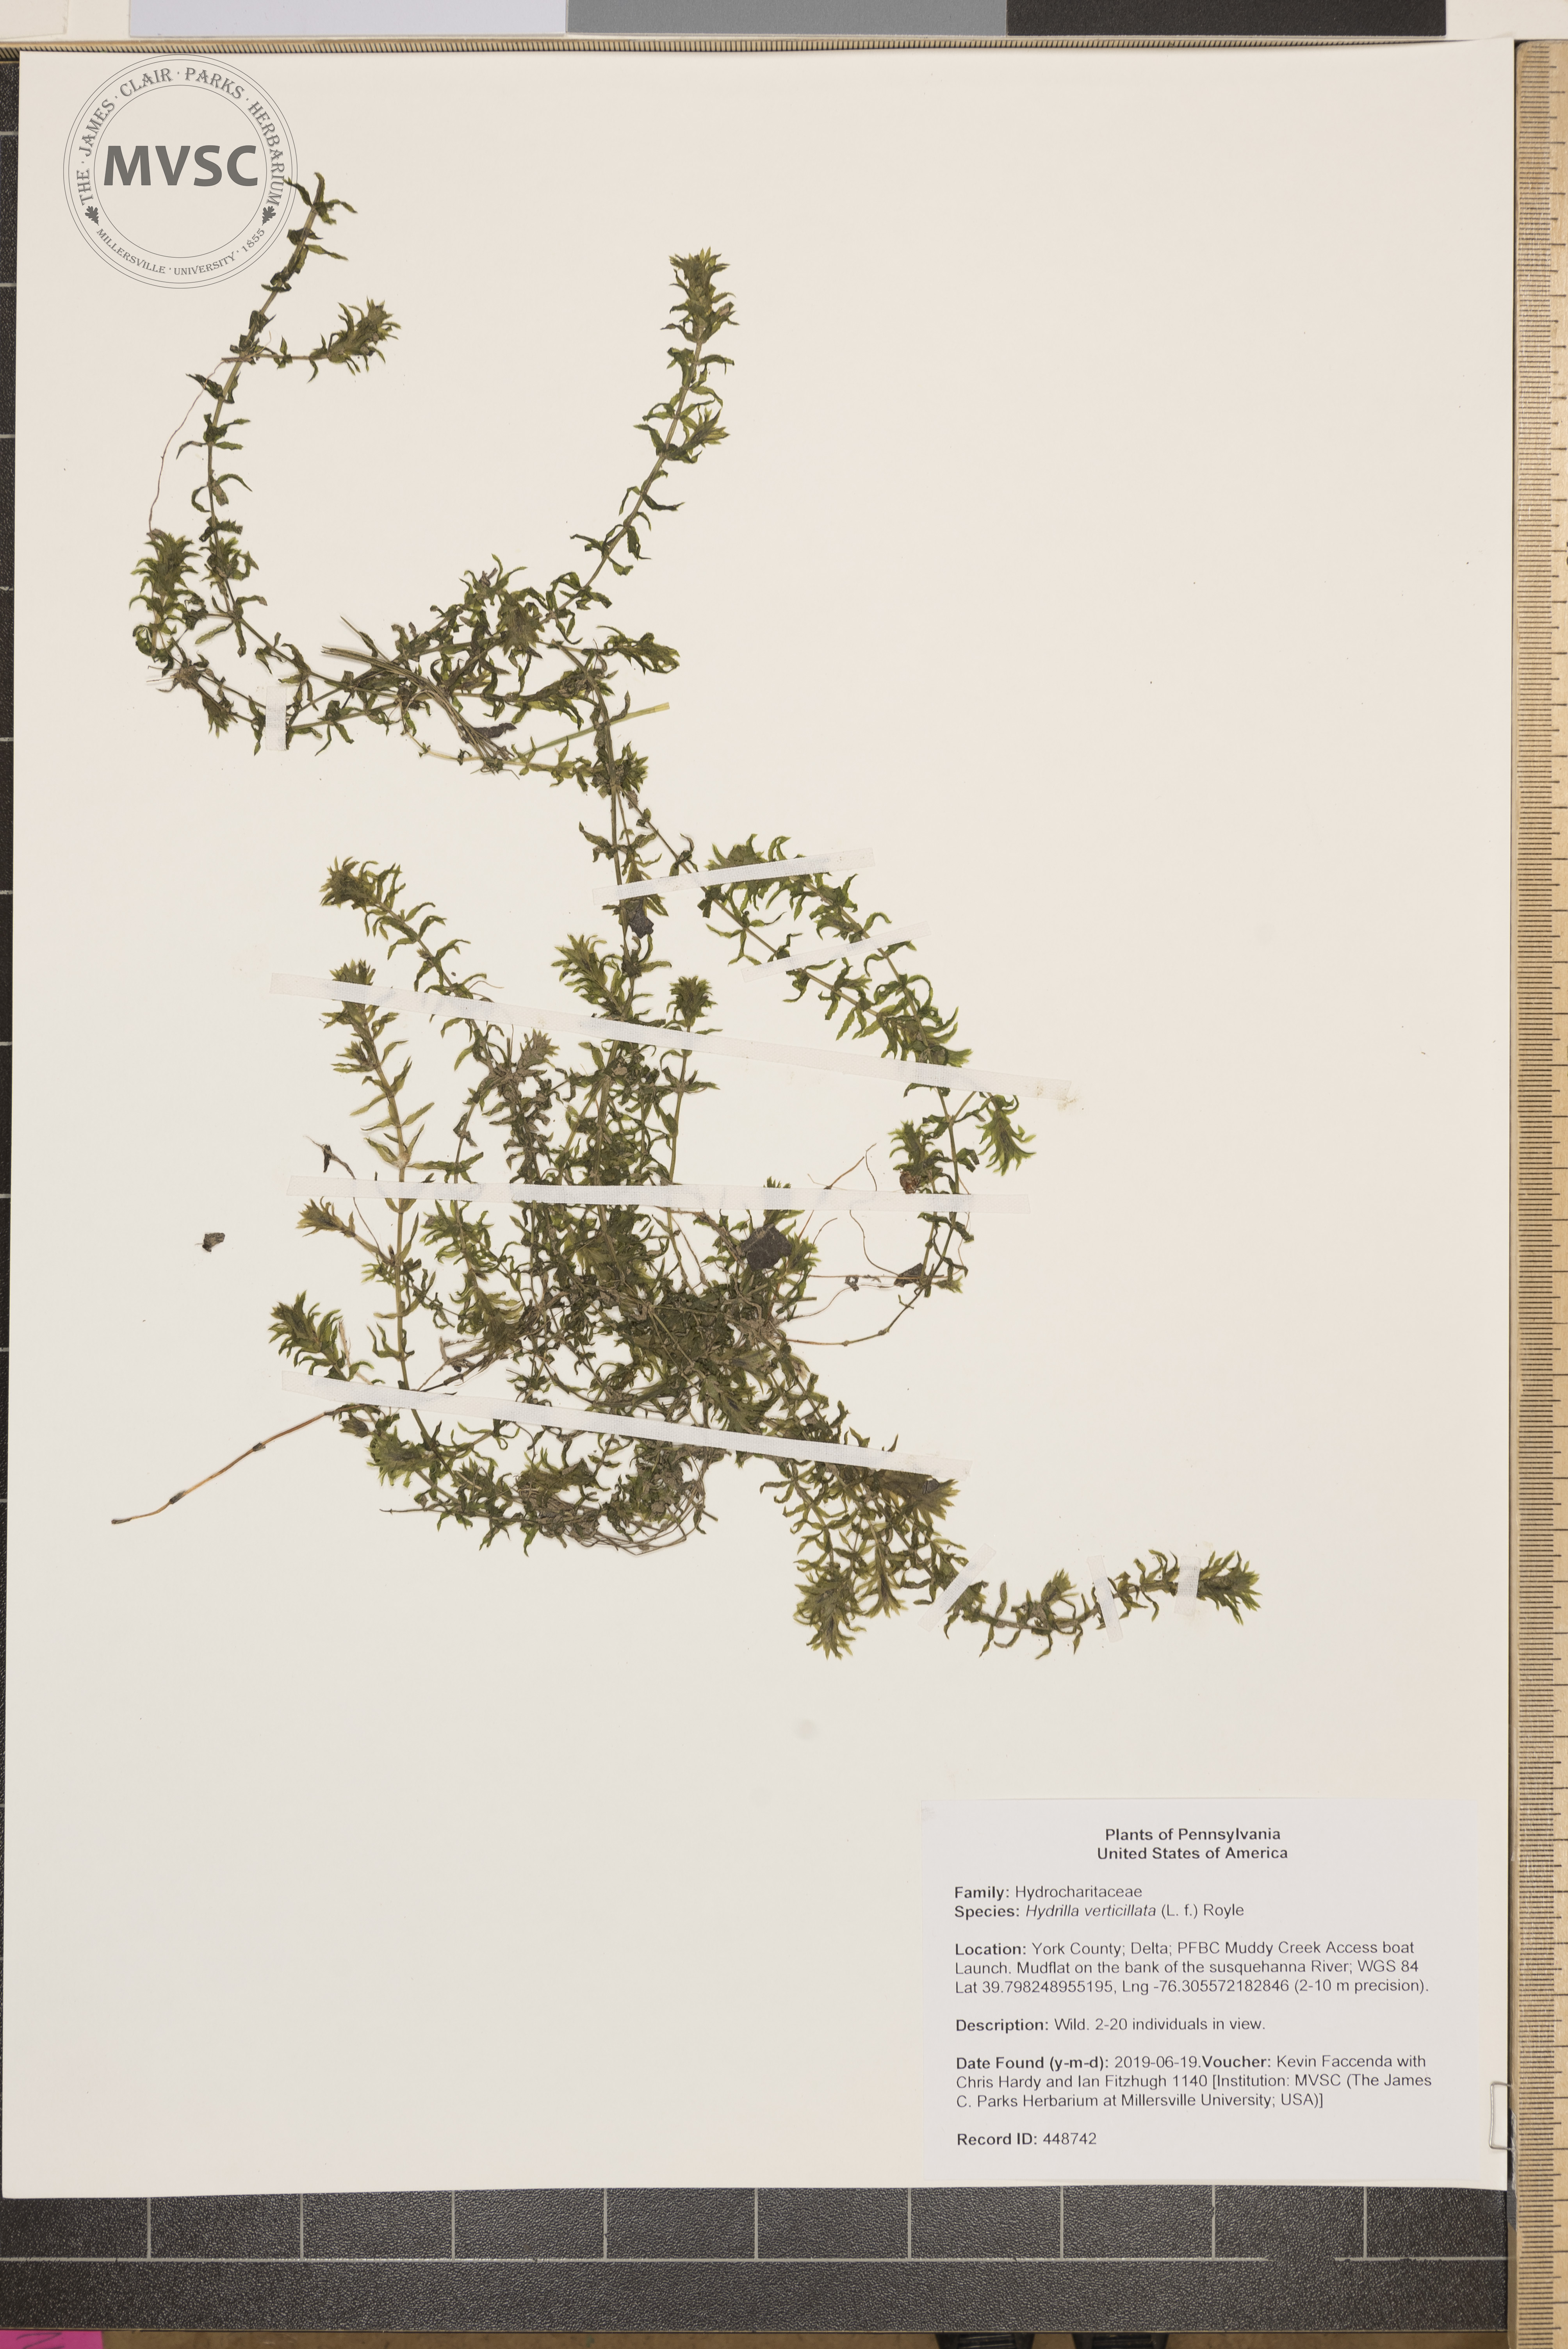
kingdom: Plantae
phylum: Tracheophyta
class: Liliopsida
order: Alismatales
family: Hydrocharitaceae
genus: Hydrilla
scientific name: Hydrilla verticillata
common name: Florida-elodea
